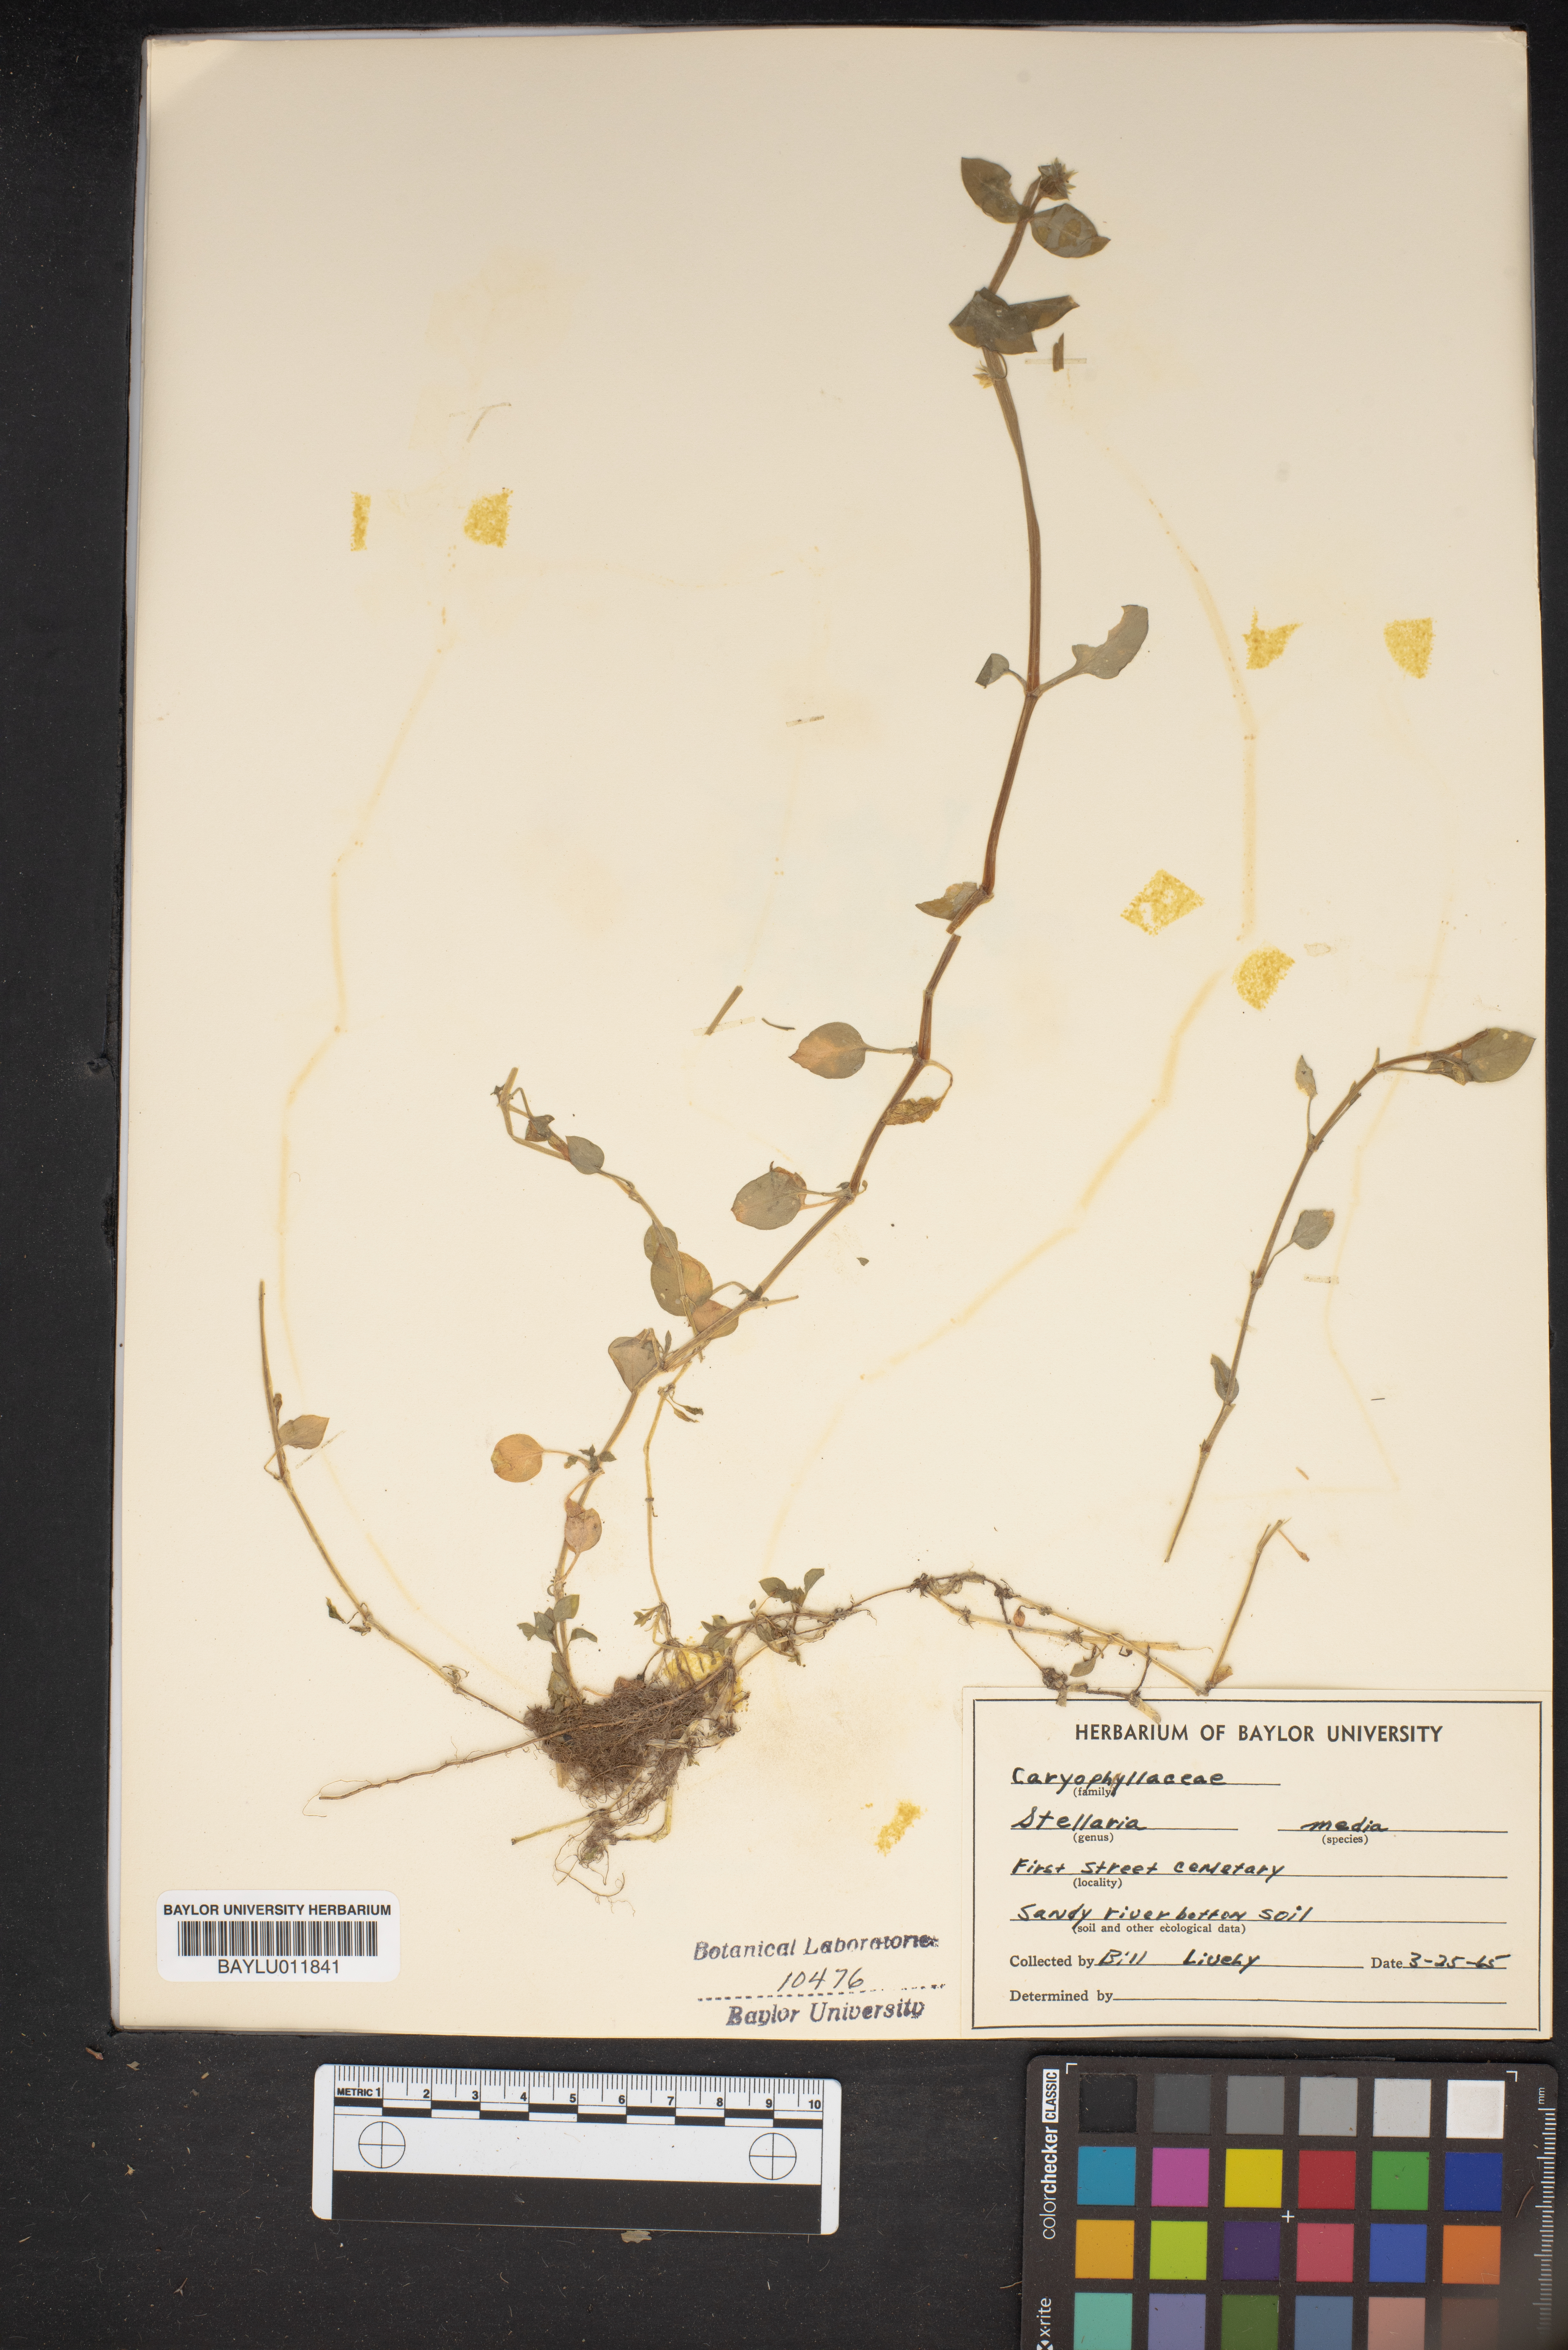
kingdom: Plantae
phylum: Tracheophyta
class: Magnoliopsida
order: Caryophyllales
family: Caryophyllaceae
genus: Stellaria
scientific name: Stellaria media
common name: Common chickweed
